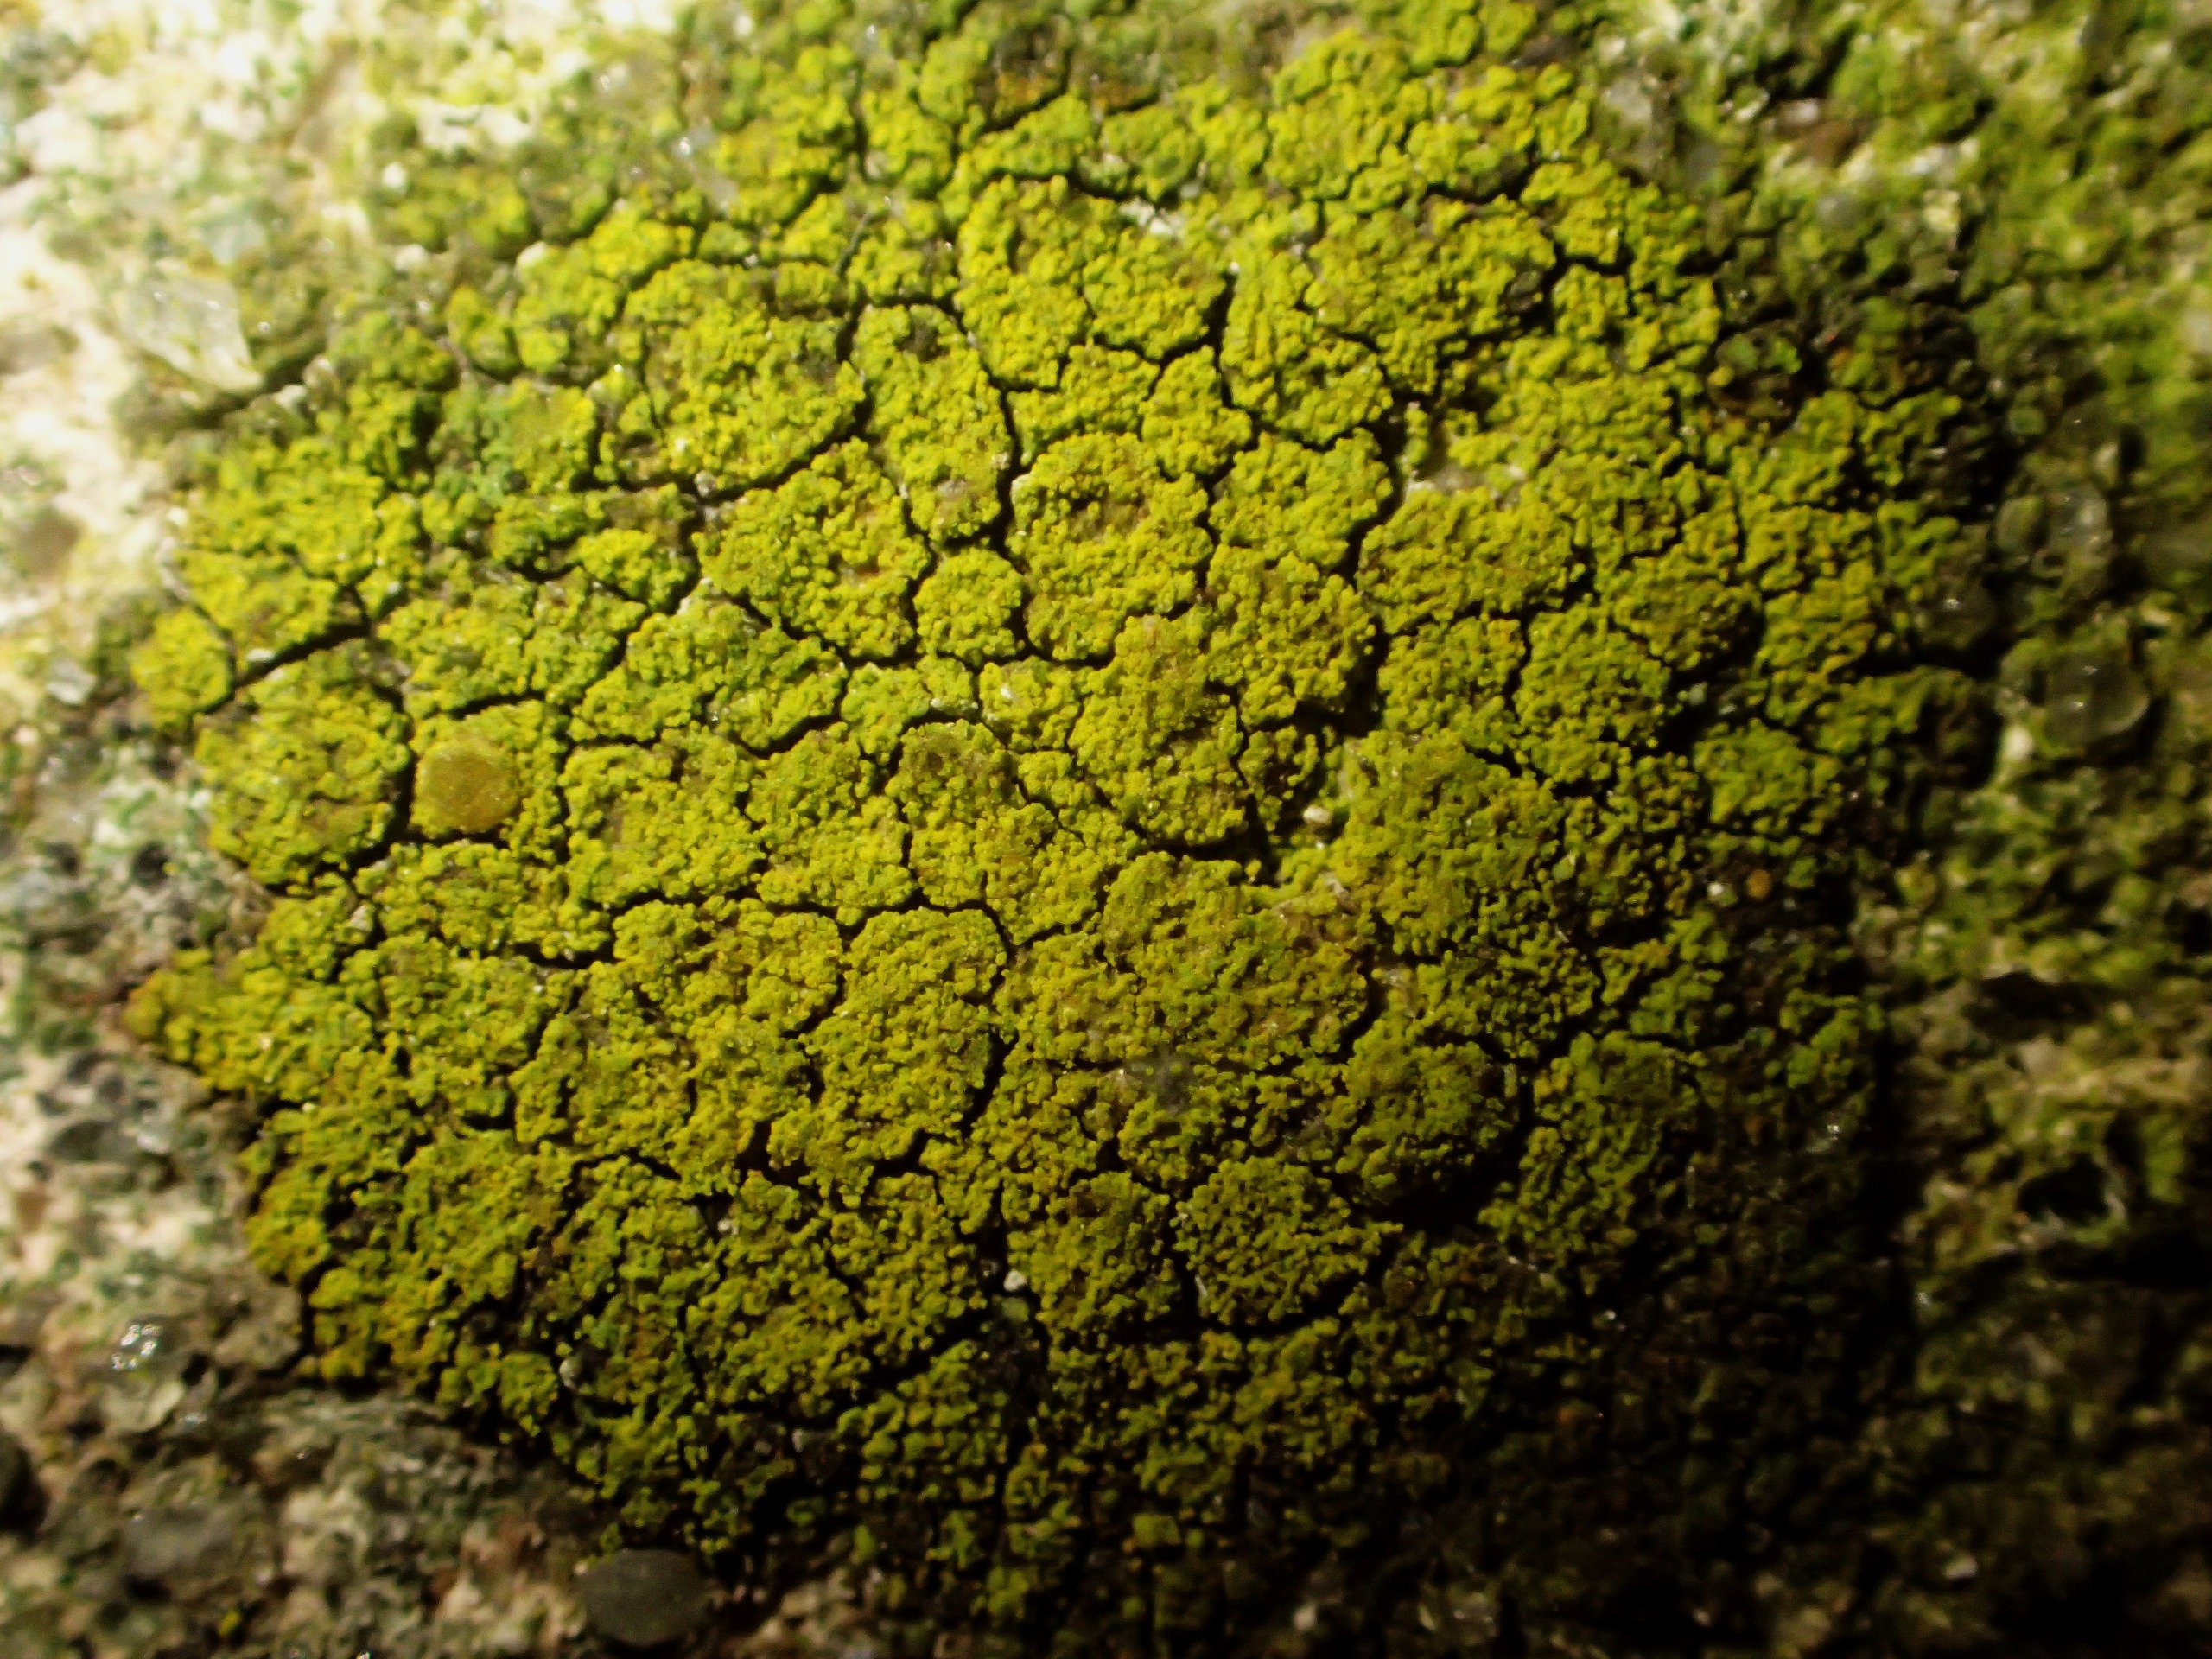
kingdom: Fungi
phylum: Ascomycota
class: Candelariomycetes
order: Candelariales
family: Candelariaceae
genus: Candelariella
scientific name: Candelariella vitellina
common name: Almindelig æggeblommelav
